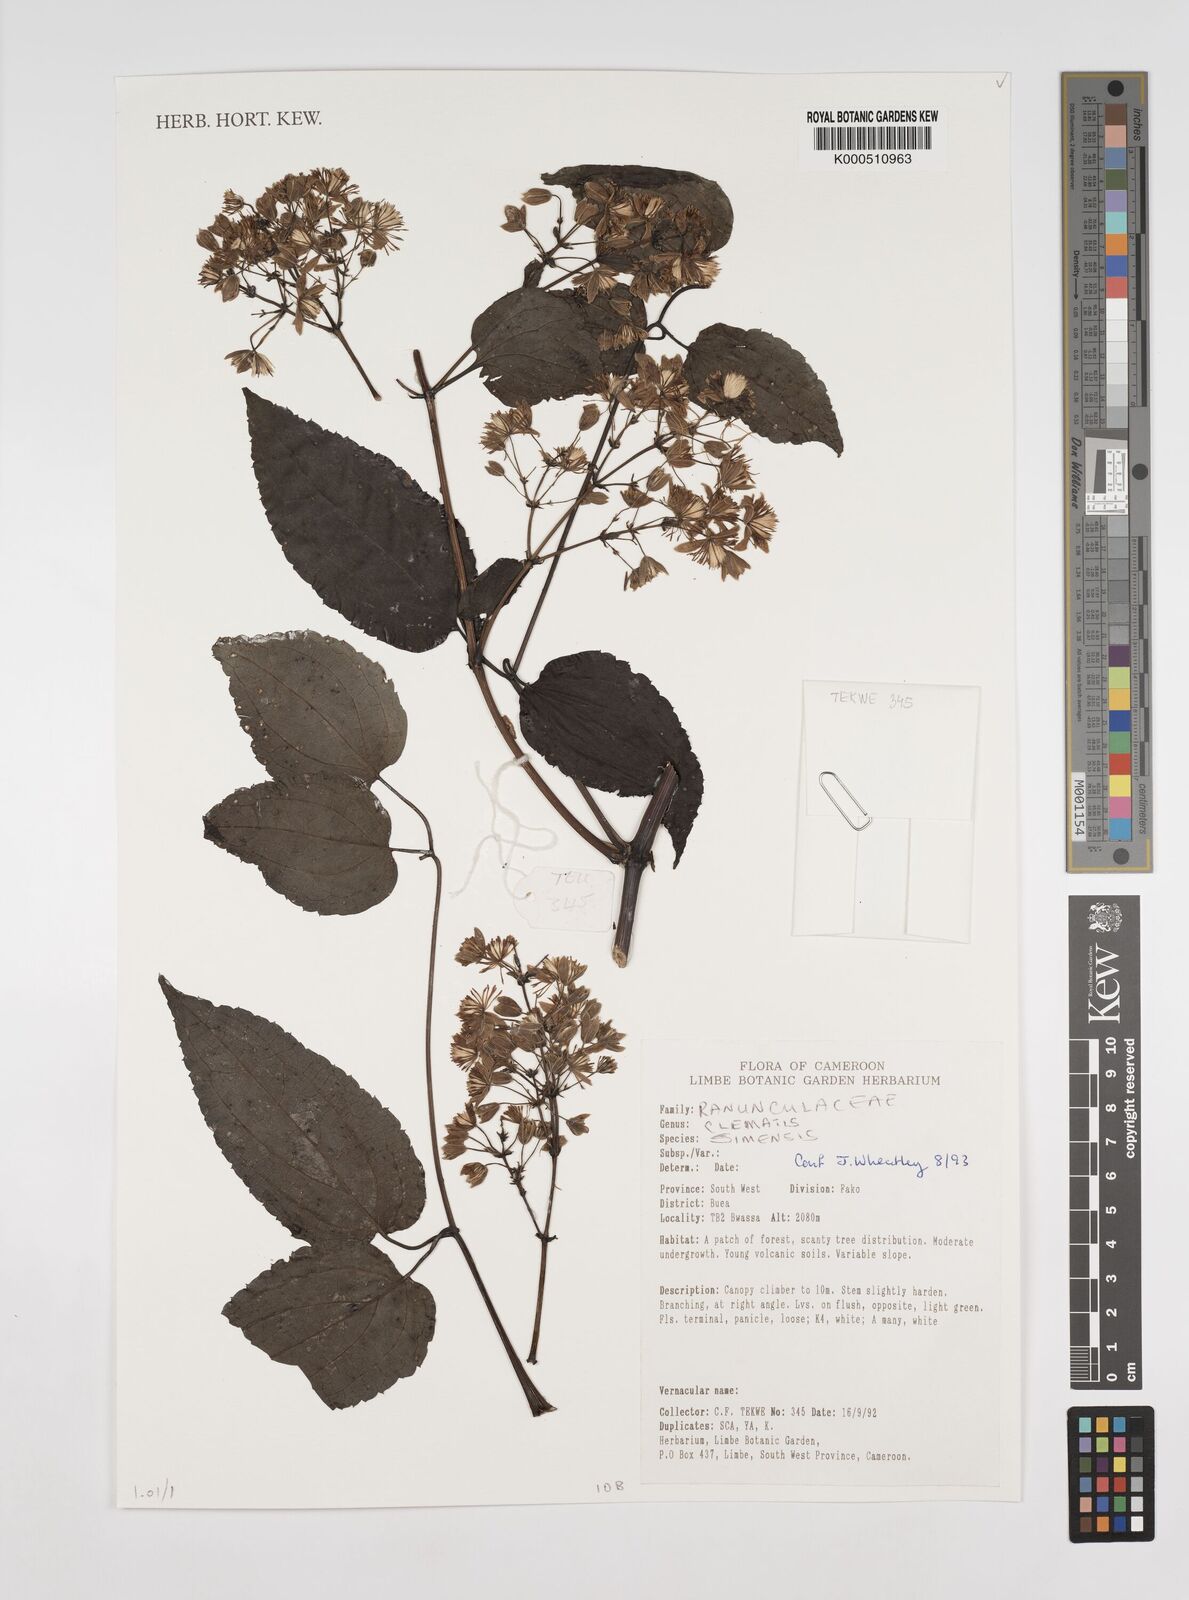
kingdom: Plantae
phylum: Tracheophyta
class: Magnoliopsida
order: Ranunculales
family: Ranunculaceae
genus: Clematis
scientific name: Clematis simensis
